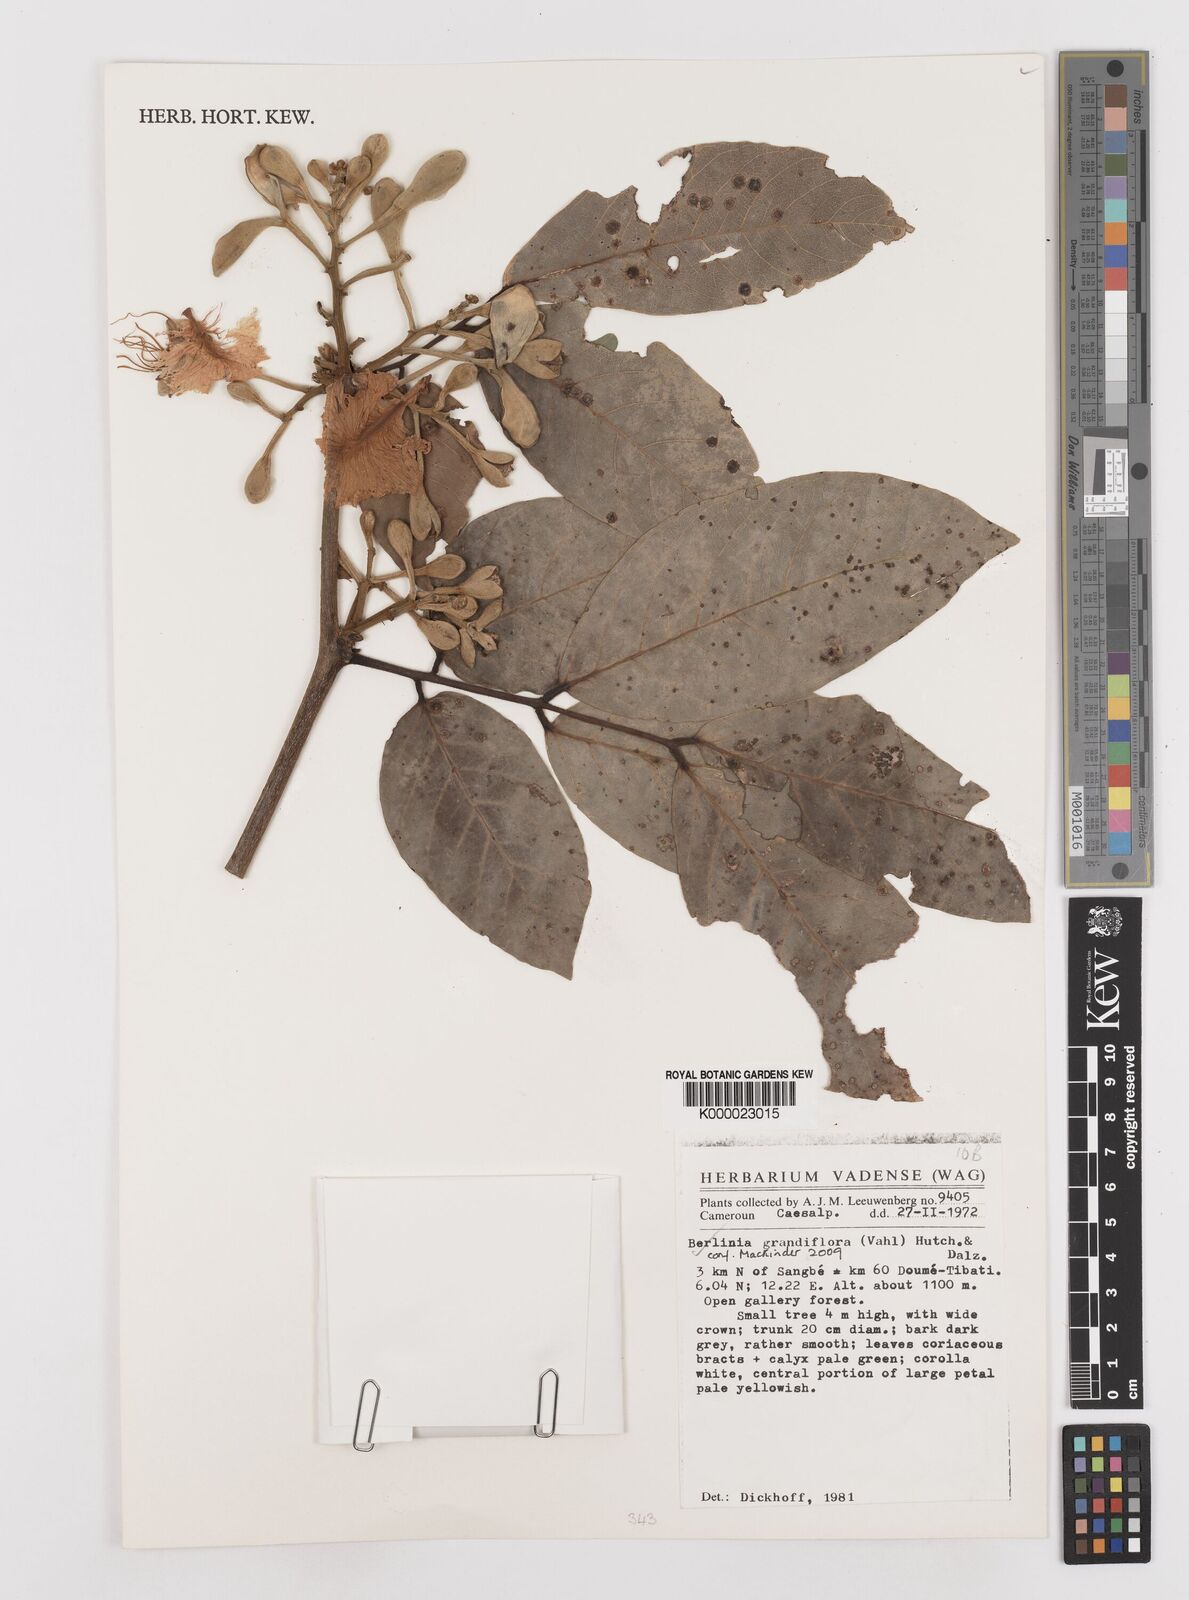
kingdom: Plantae
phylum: Tracheophyta
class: Magnoliopsida
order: Fabales
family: Fabaceae
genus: Berlinia
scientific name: Berlinia grandiflora
